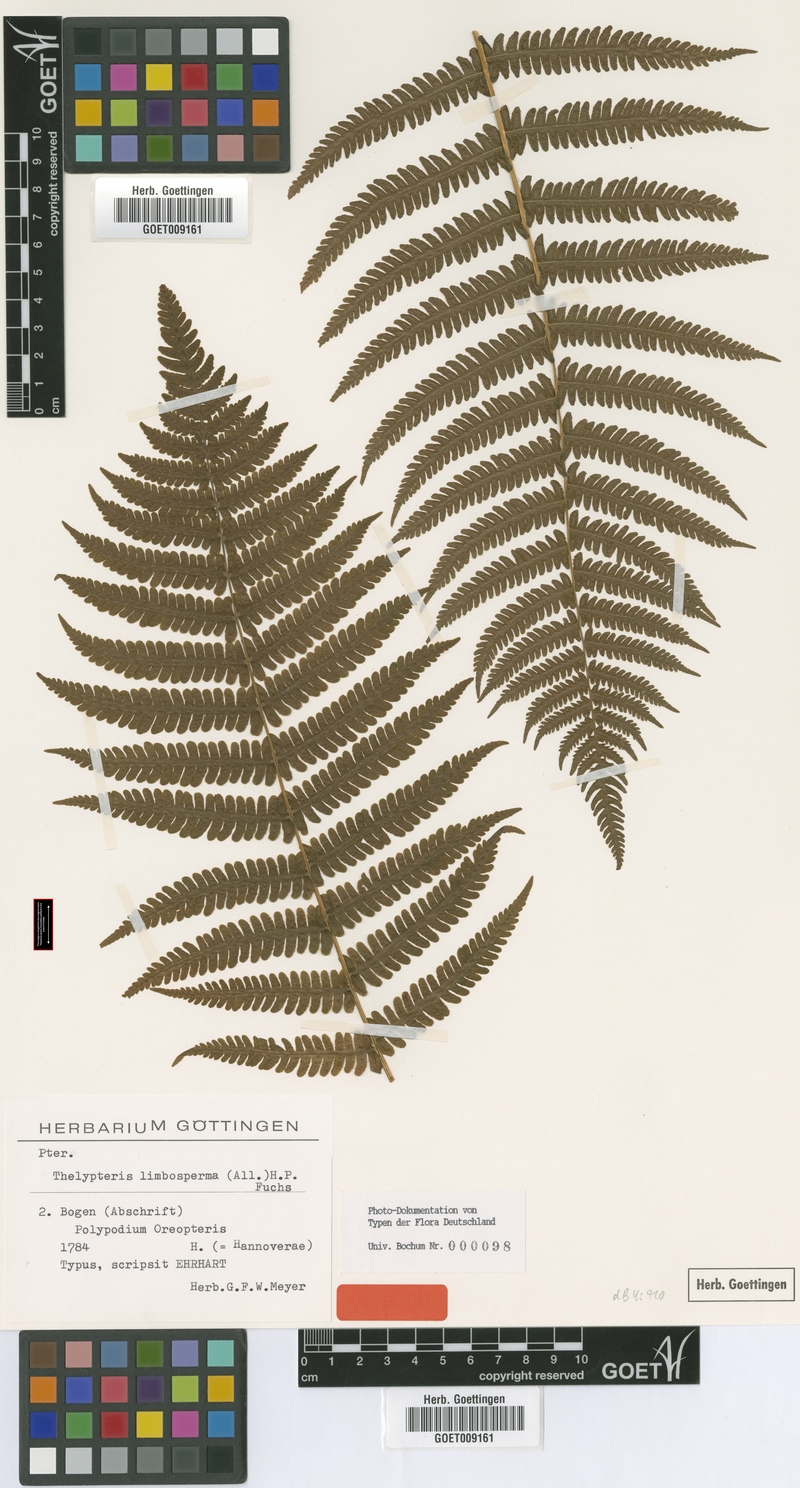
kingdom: Plantae
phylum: Tracheophyta
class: Polypodiopsida
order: Polypodiales
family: Thelypteridaceae
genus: Oreopteris
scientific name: Oreopteris limbosperma
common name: Lemon-scented fern
